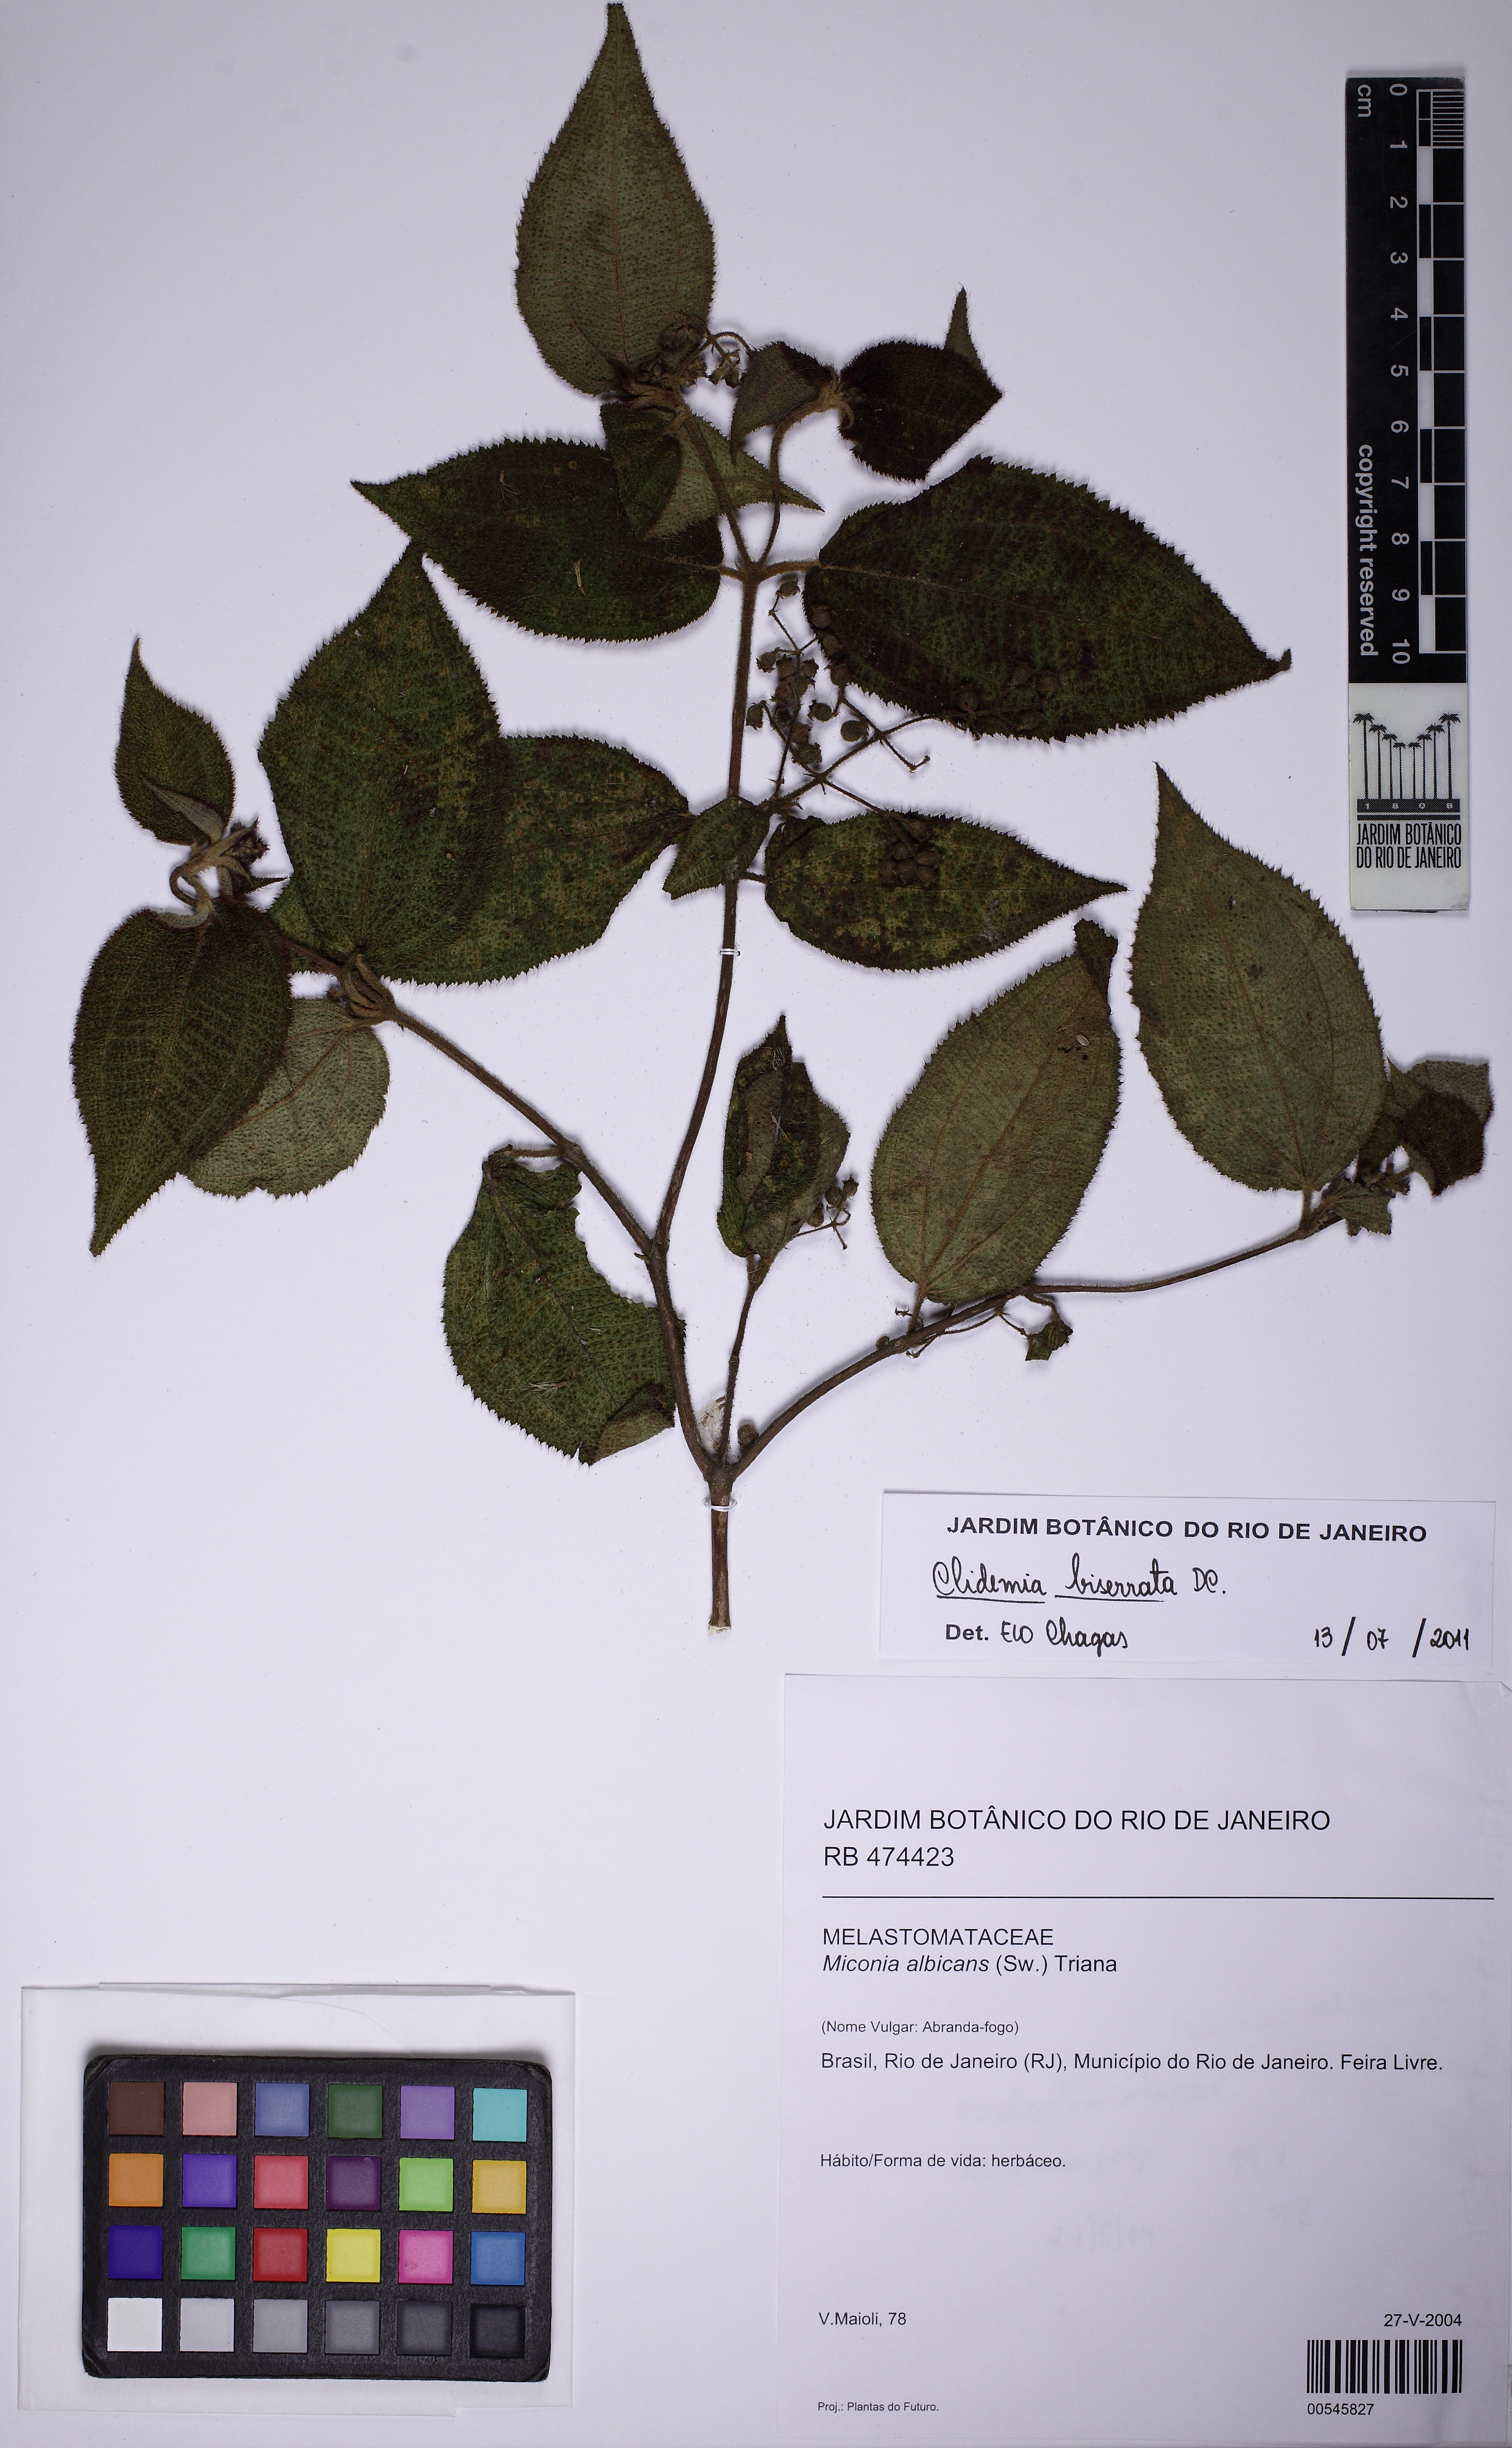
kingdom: Plantae
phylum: Tracheophyta
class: Magnoliopsida
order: Myrtales
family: Melastomataceae
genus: Miconia
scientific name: Miconia biserrata
